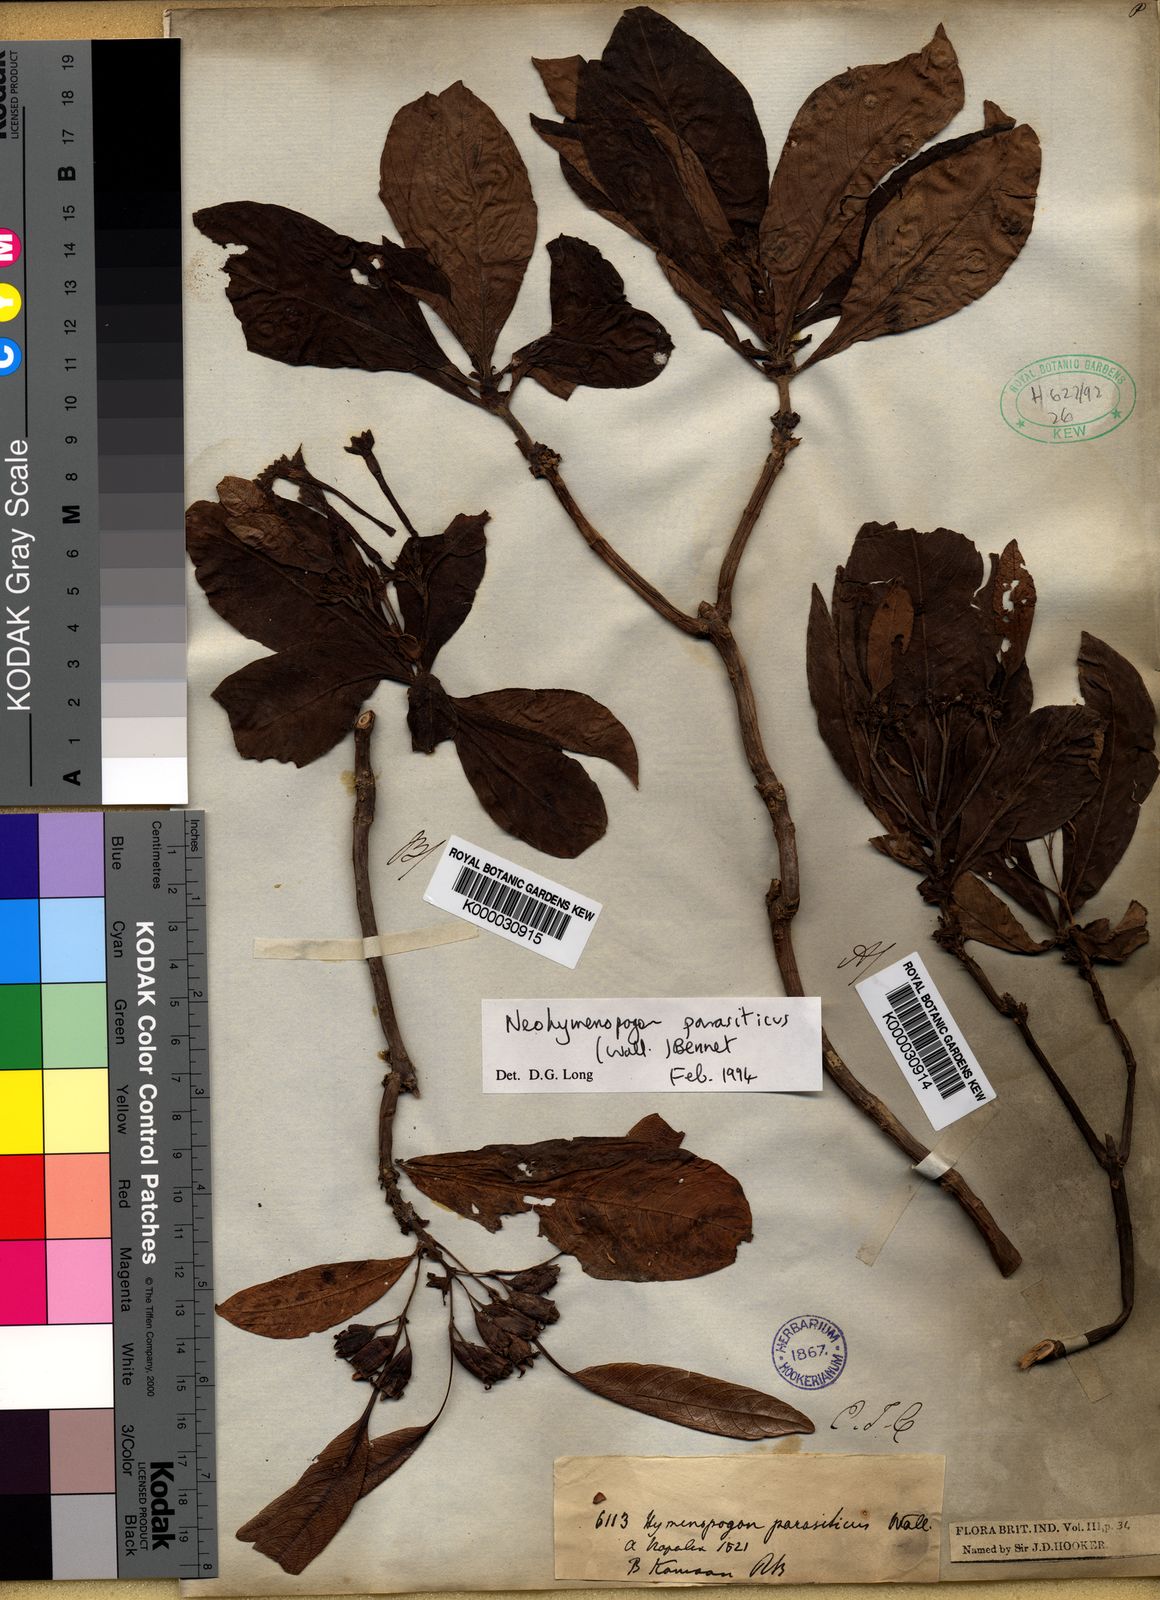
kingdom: Plantae
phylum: Tracheophyta
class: Magnoliopsida
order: Gentianales
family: Rubiaceae
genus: Neohymenopogon
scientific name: Neohymenopogon parasiticus
